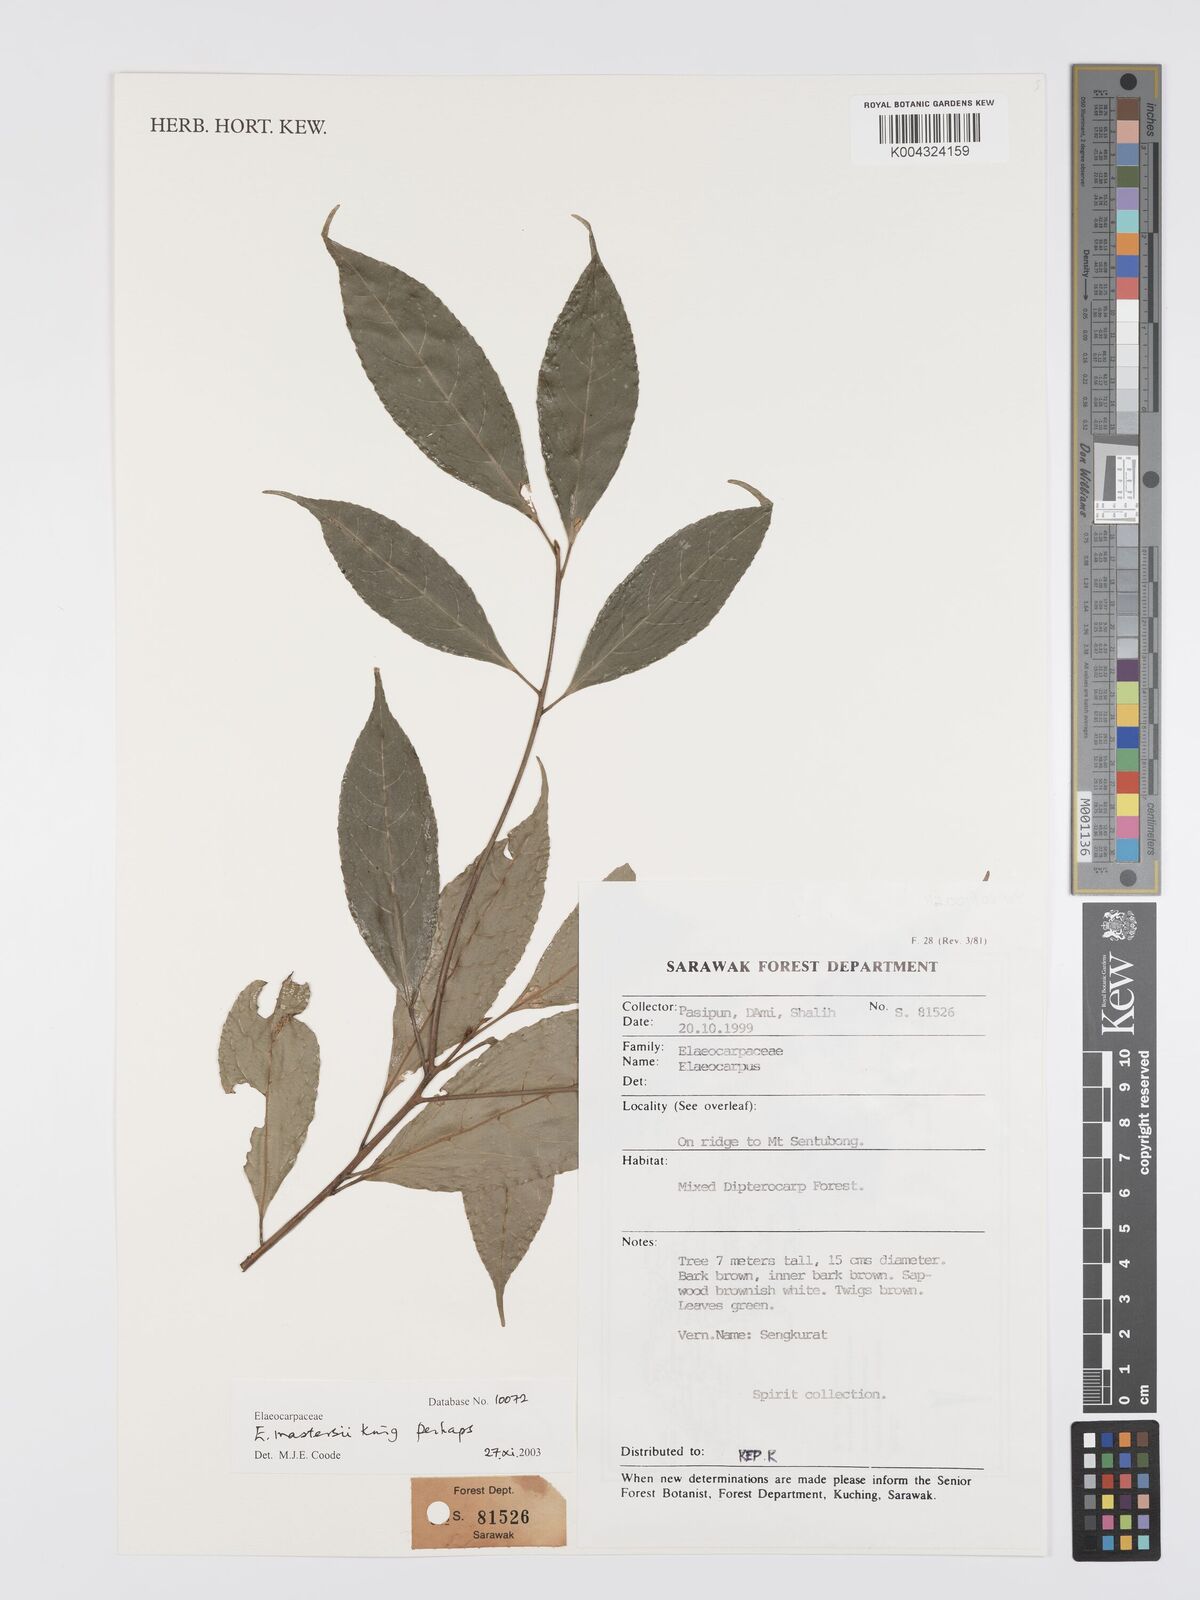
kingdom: Plantae
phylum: Tracheophyta
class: Magnoliopsida
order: Oxalidales
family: Elaeocarpaceae
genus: Elaeocarpus
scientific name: Elaeocarpus mastersii
